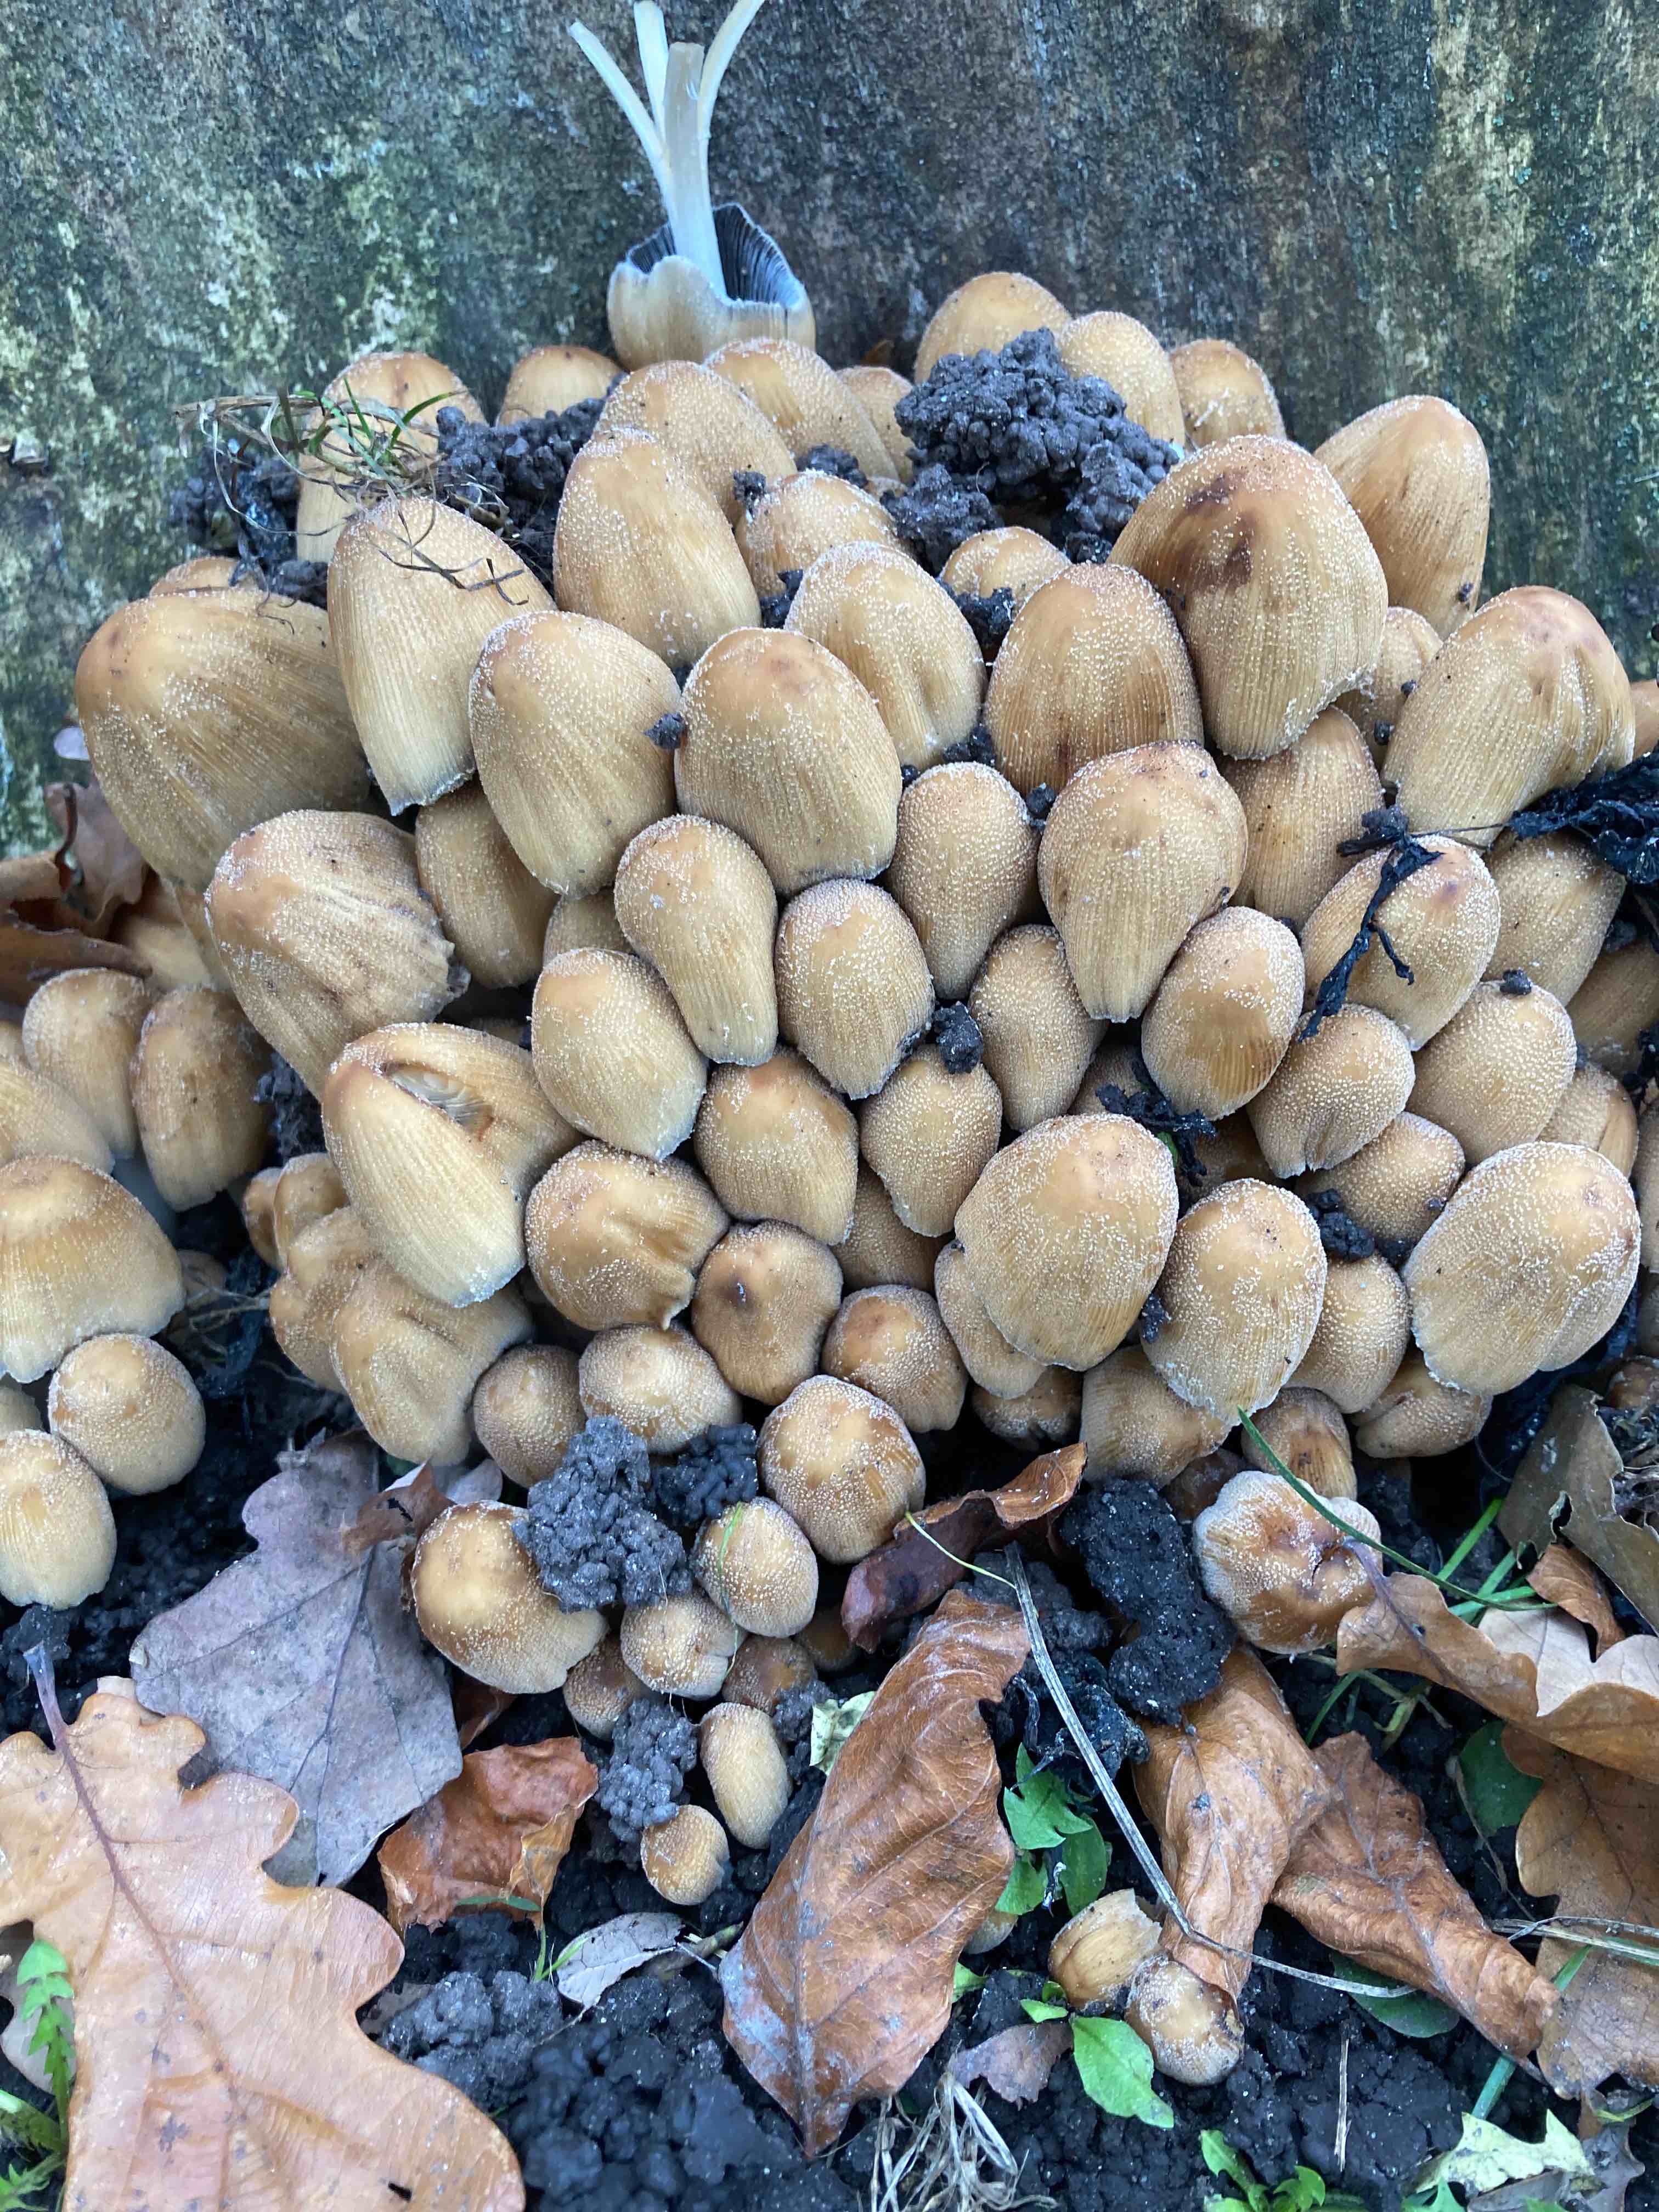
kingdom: Fungi
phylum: Basidiomycota
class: Agaricomycetes
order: Agaricales
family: Psathyrellaceae
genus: Coprinellus
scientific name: Coprinellus micaceus
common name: glimmer-blækhat
